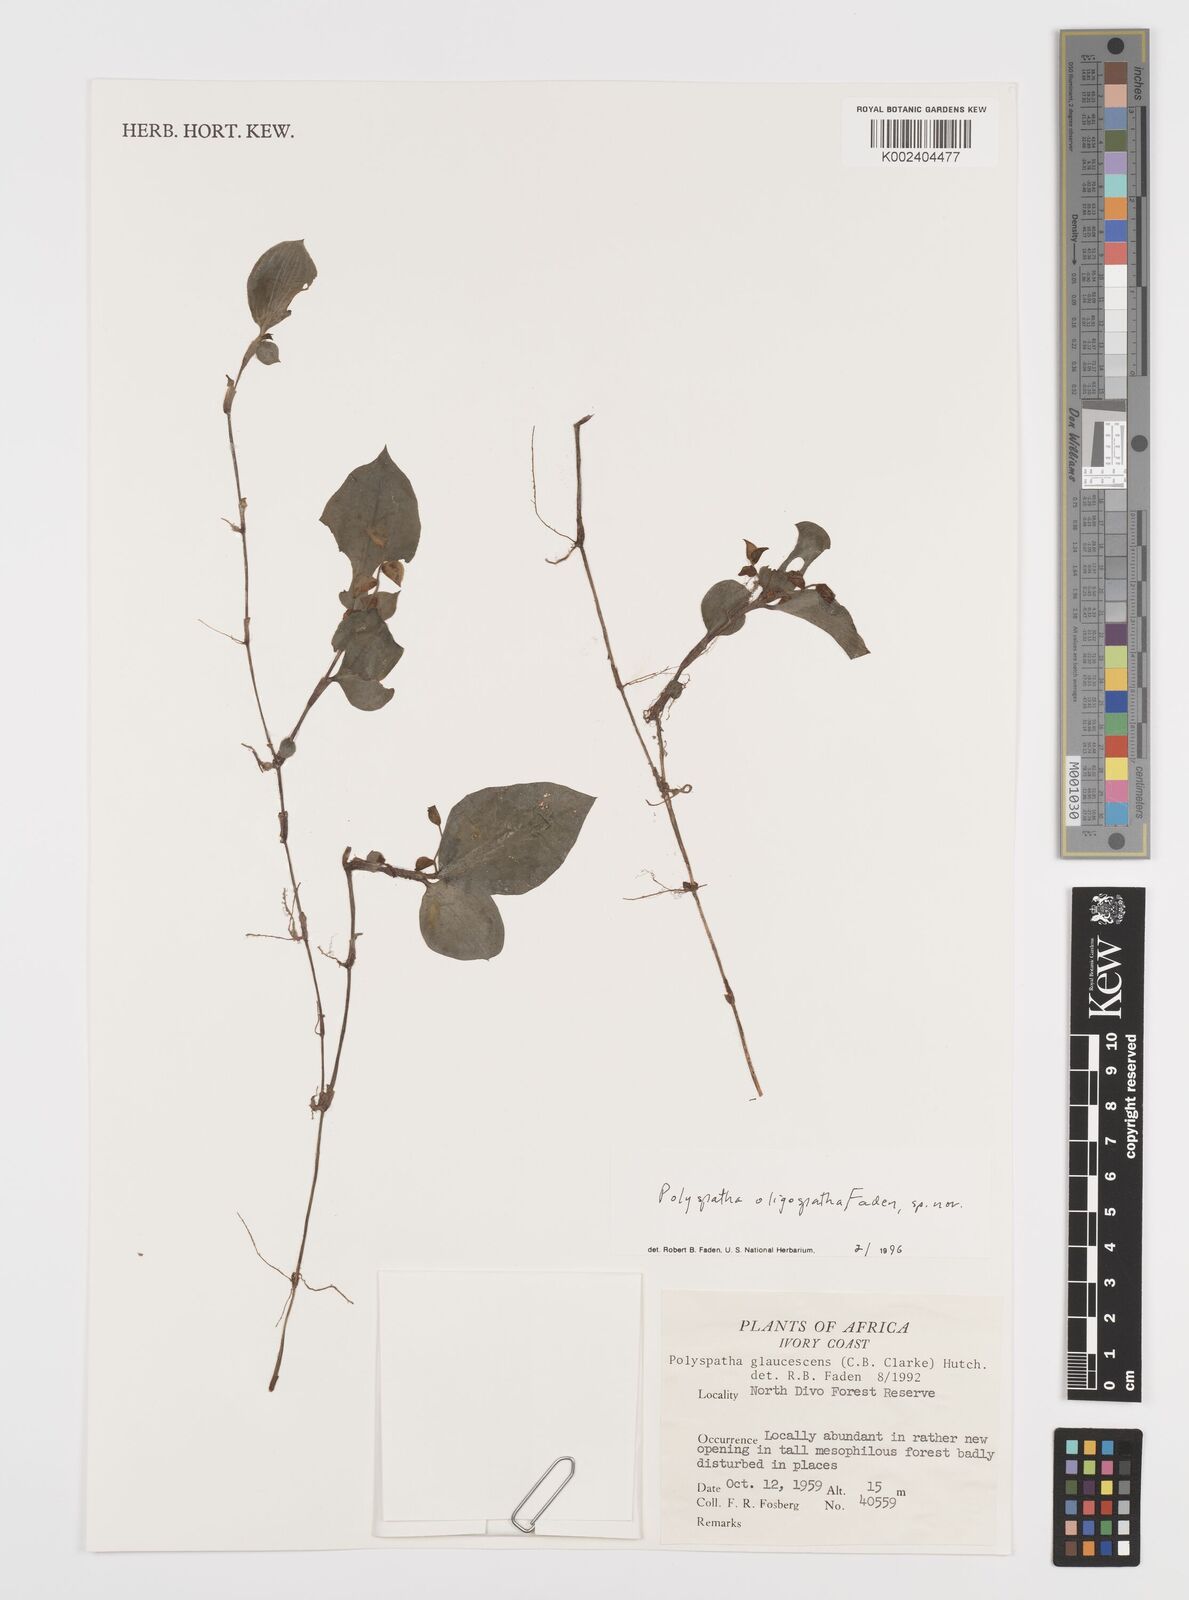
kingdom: Plantae
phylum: Tracheophyta
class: Liliopsida
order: Commelinales
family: Commelinaceae
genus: Polyspatha
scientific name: Polyspatha oligospatha
